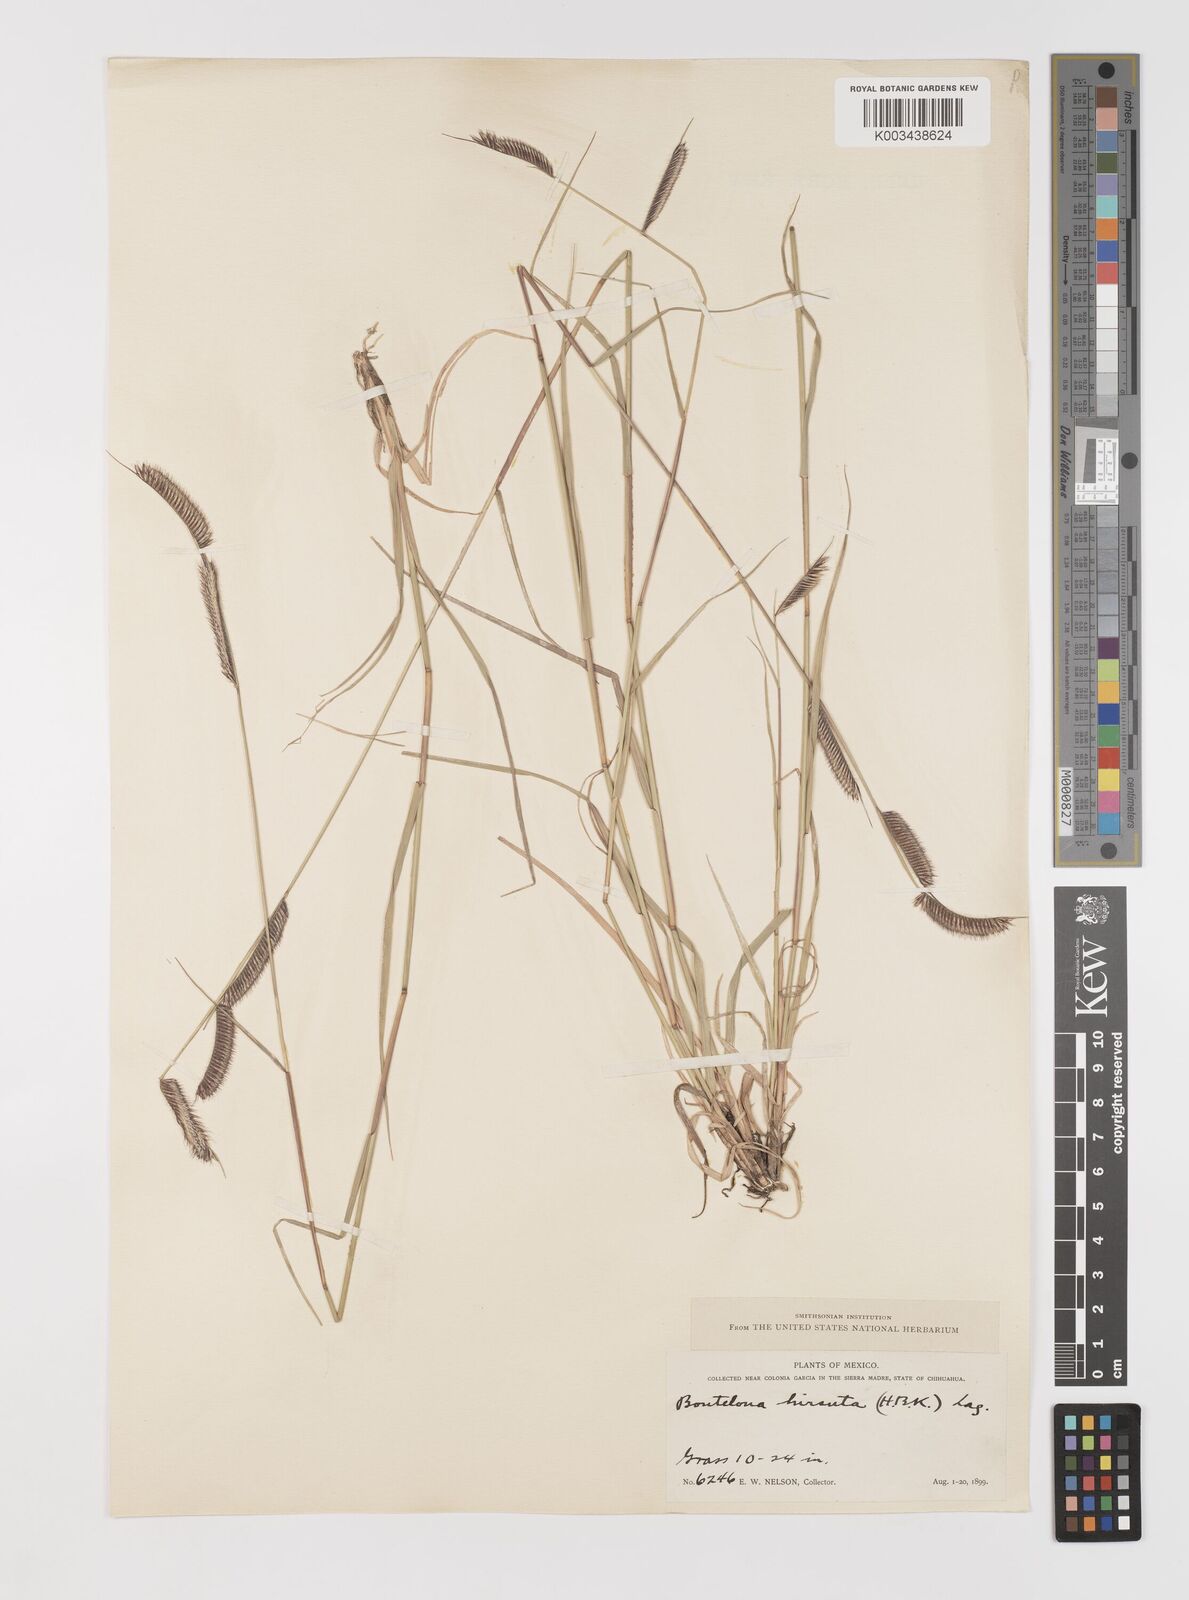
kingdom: Plantae
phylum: Tracheophyta
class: Liliopsida
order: Poales
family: Poaceae
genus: Bouteloua
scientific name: Bouteloua hirsuta
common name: Hairy grama
